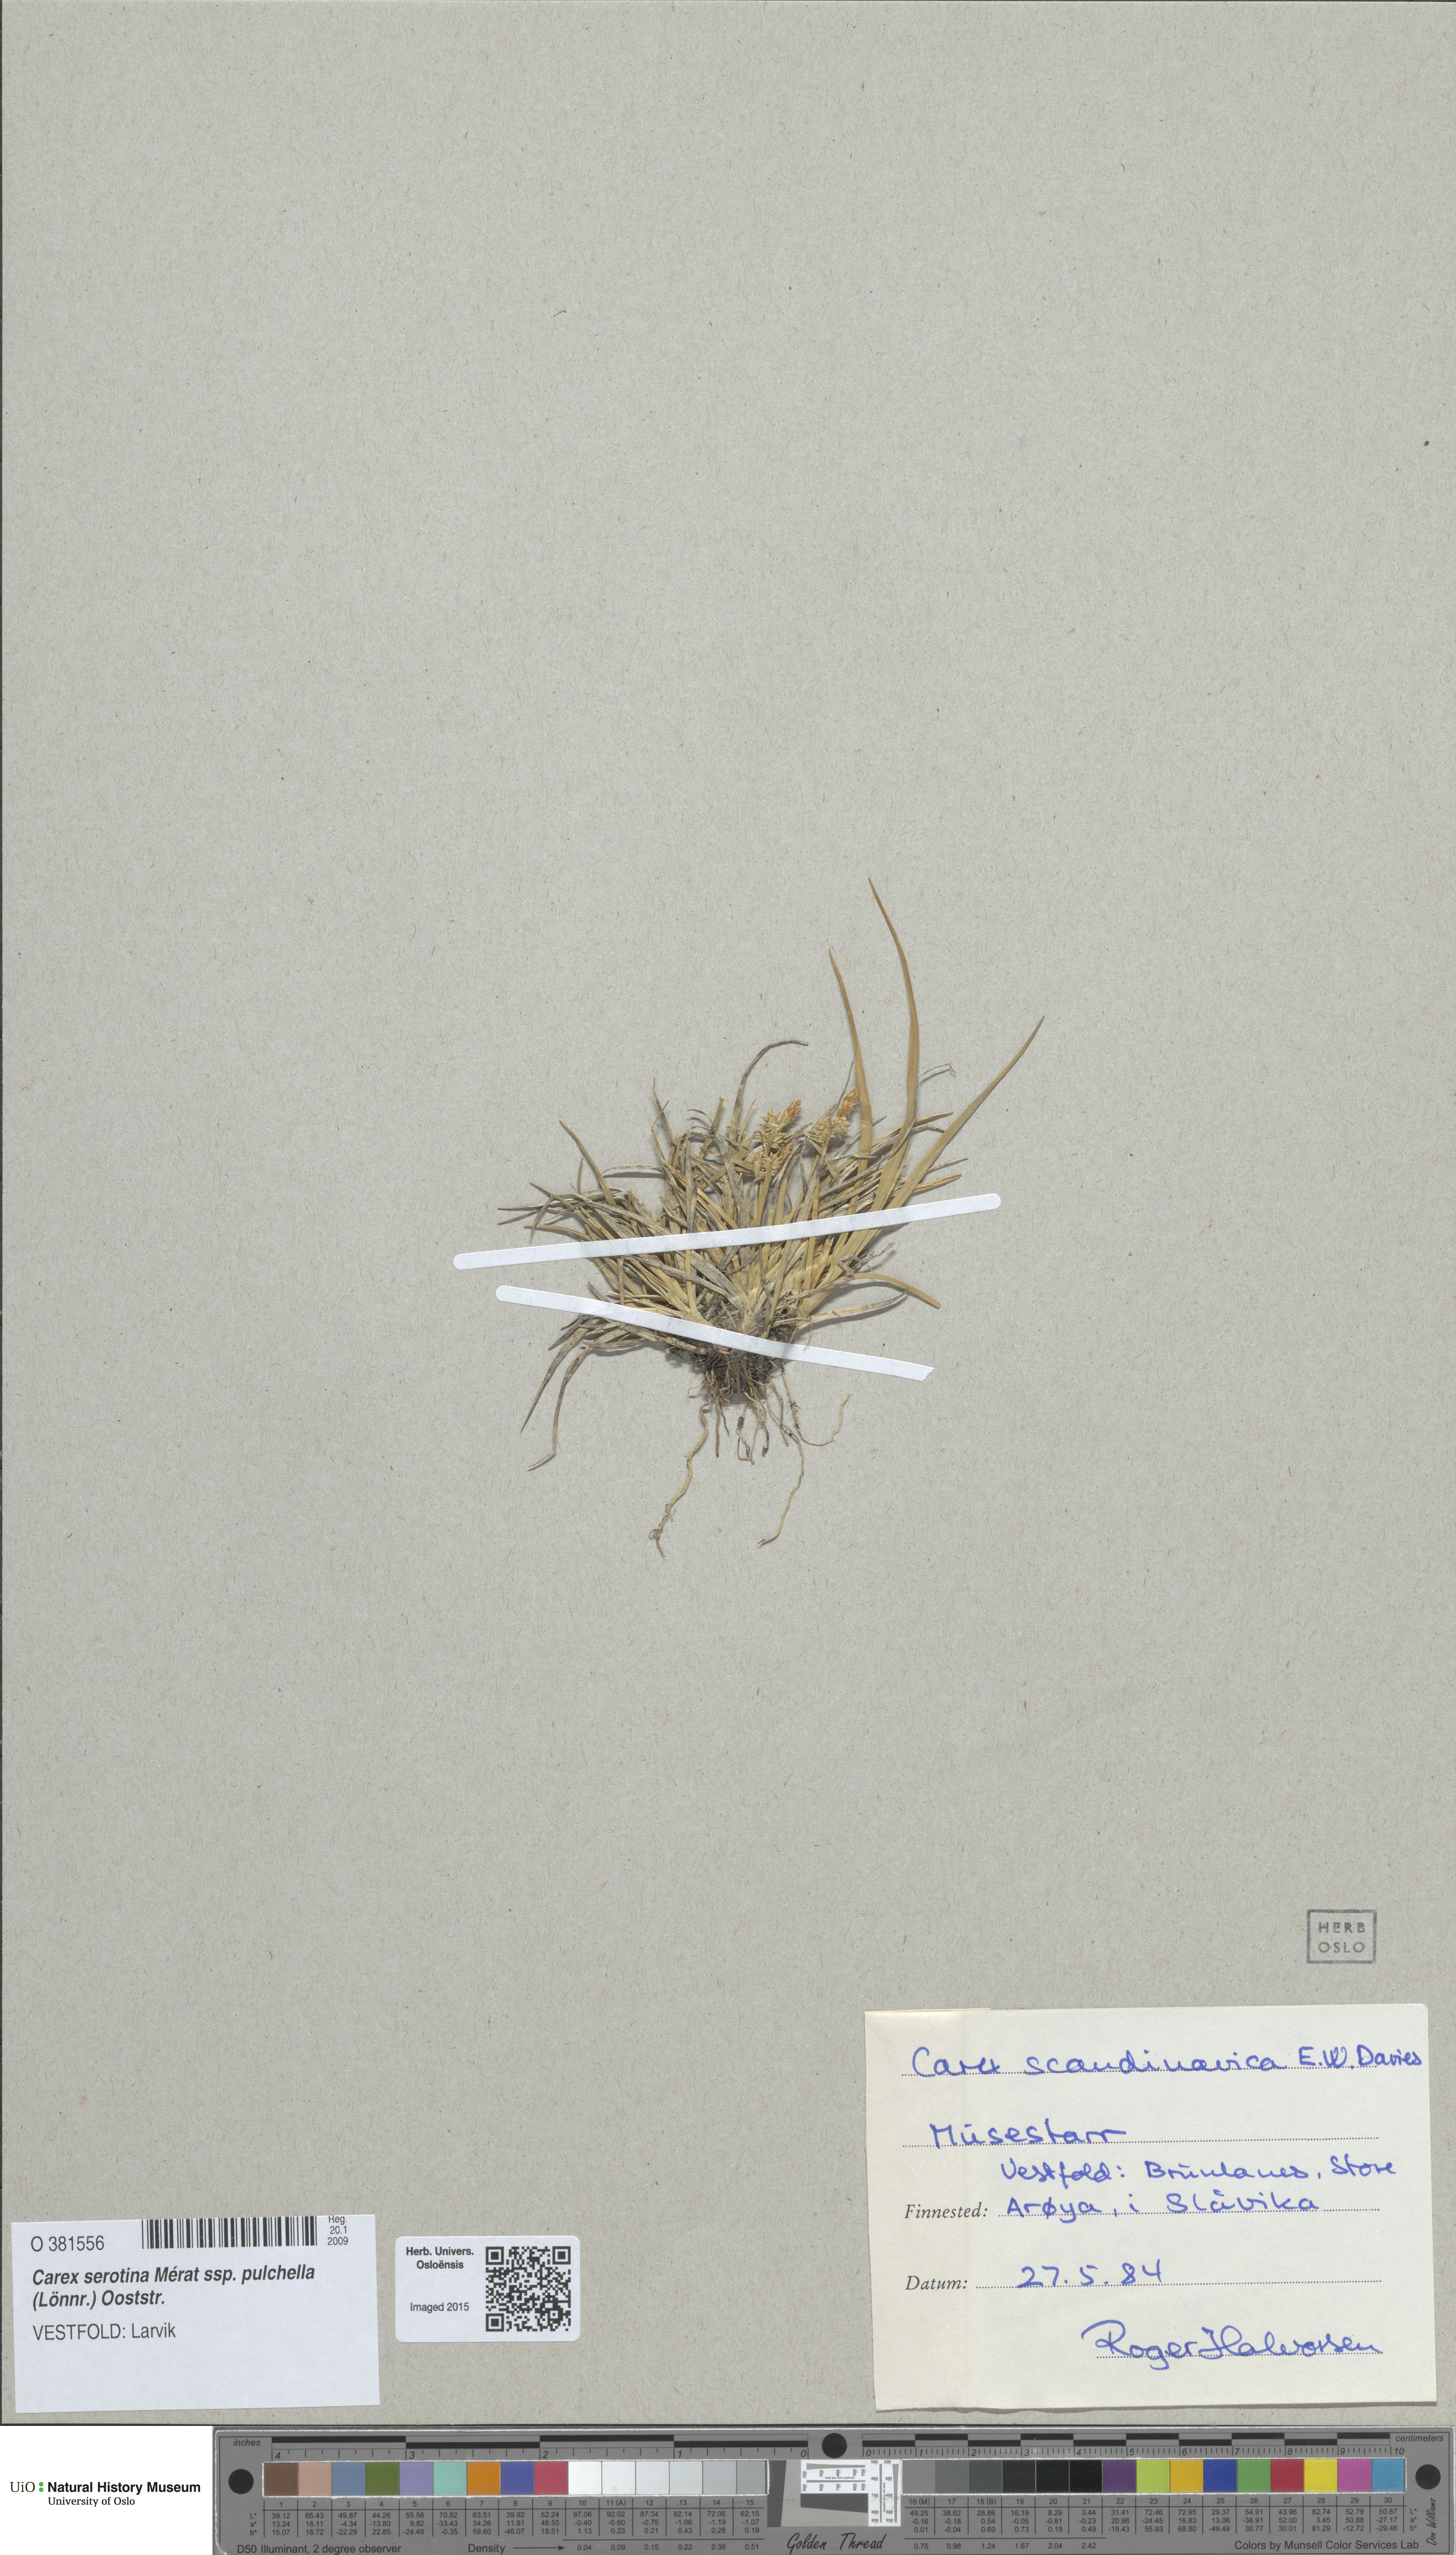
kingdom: Plantae
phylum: Tracheophyta
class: Liliopsida
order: Poales
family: Cyperaceae
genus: Carex
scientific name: Carex oederi
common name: Common & small-fruited yellow-sedge
